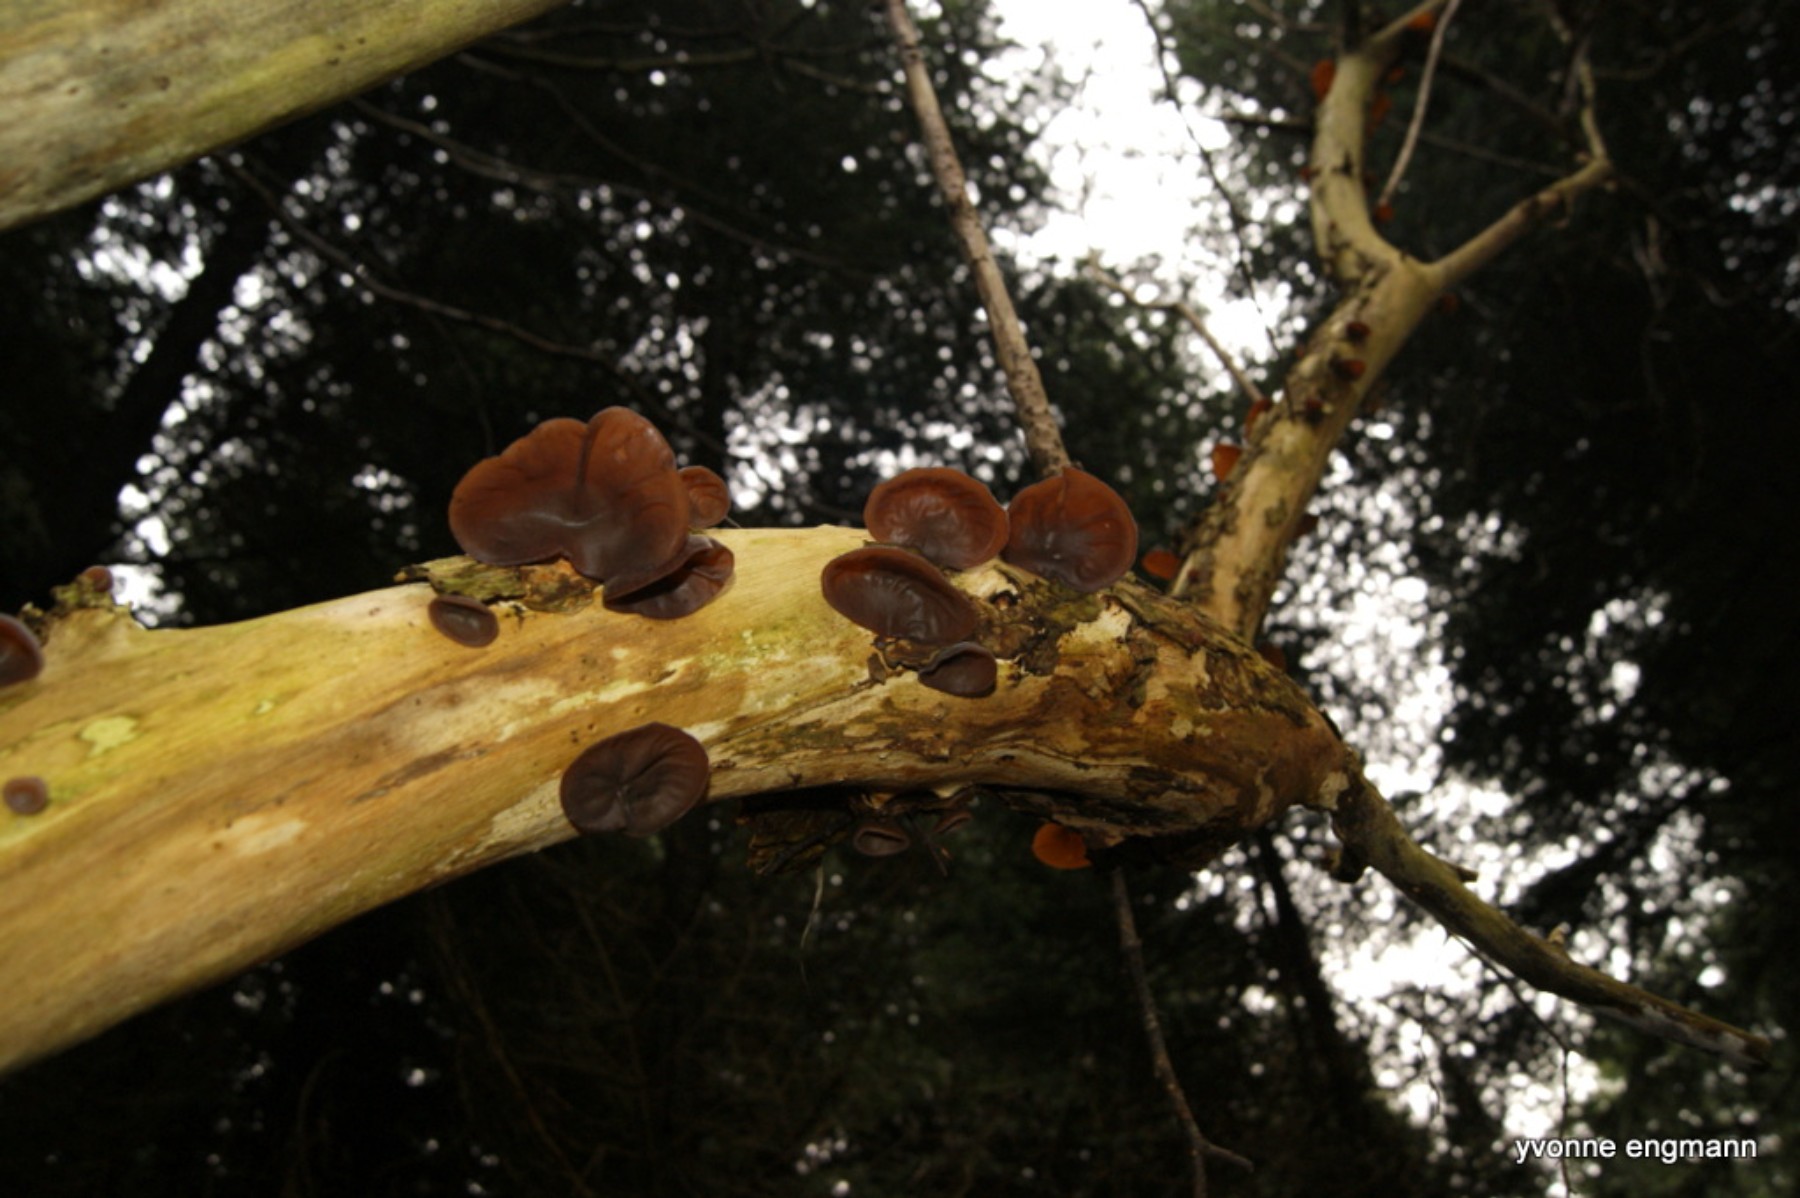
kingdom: Fungi
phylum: Basidiomycota
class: Agaricomycetes
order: Auriculariales
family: Auriculariaceae
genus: Auricularia
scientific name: Auricularia auricula-judae
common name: almindelig judasøre
